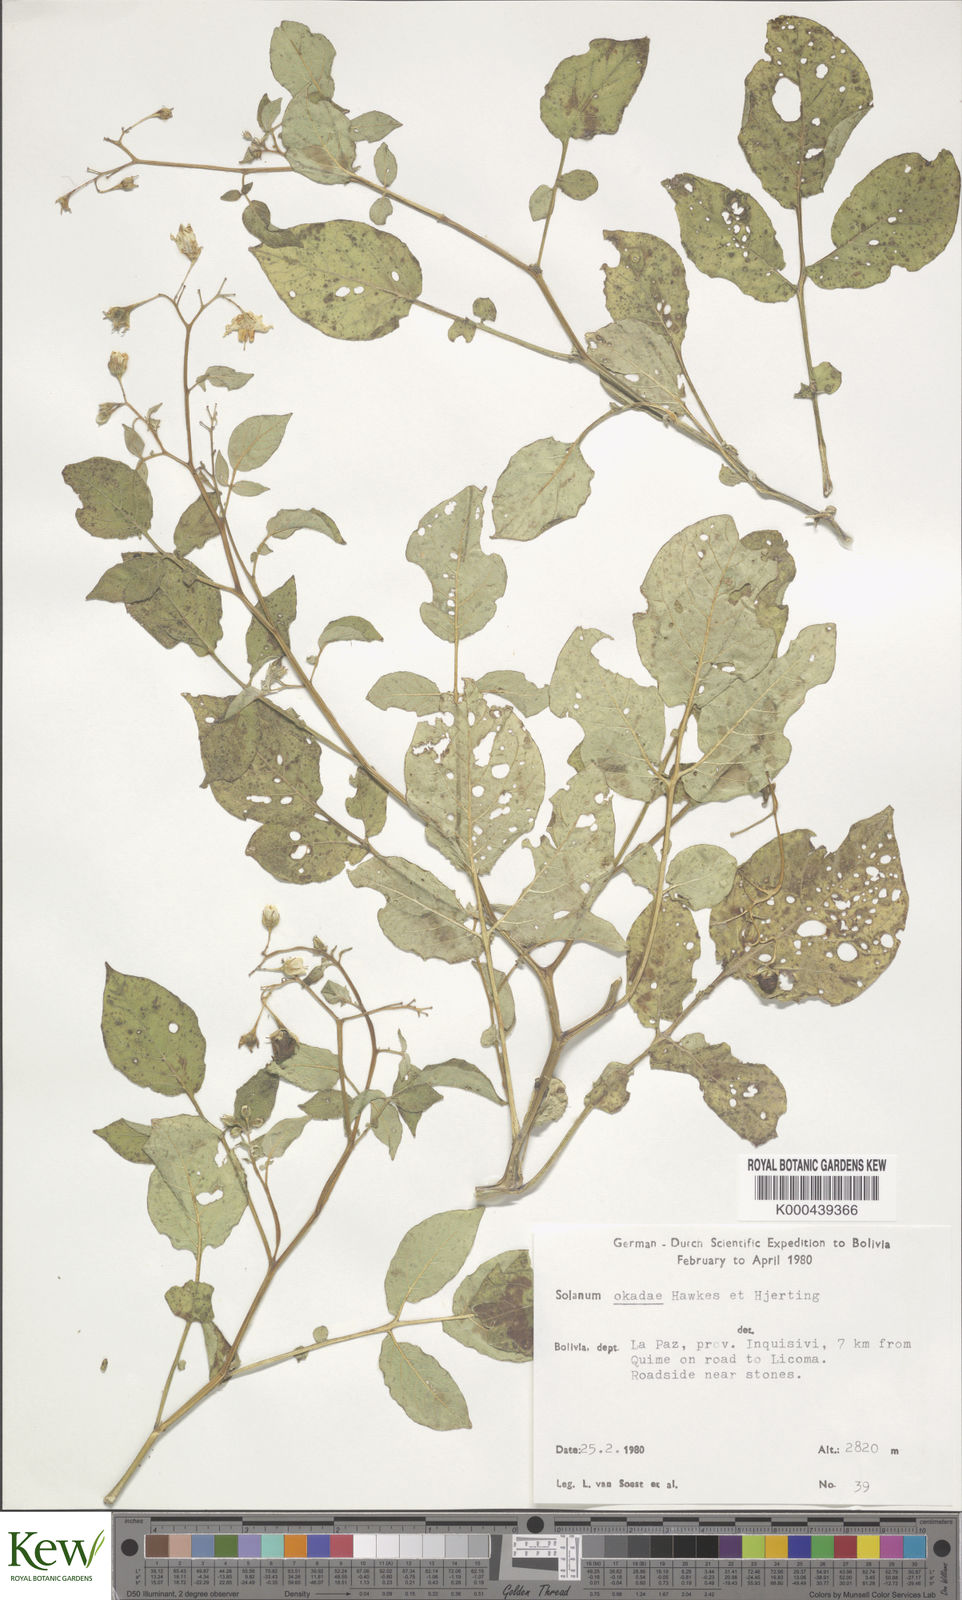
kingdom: Plantae
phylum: Tracheophyta
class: Magnoliopsida
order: Solanales
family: Solanaceae
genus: Solanum
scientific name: Solanum okadae
